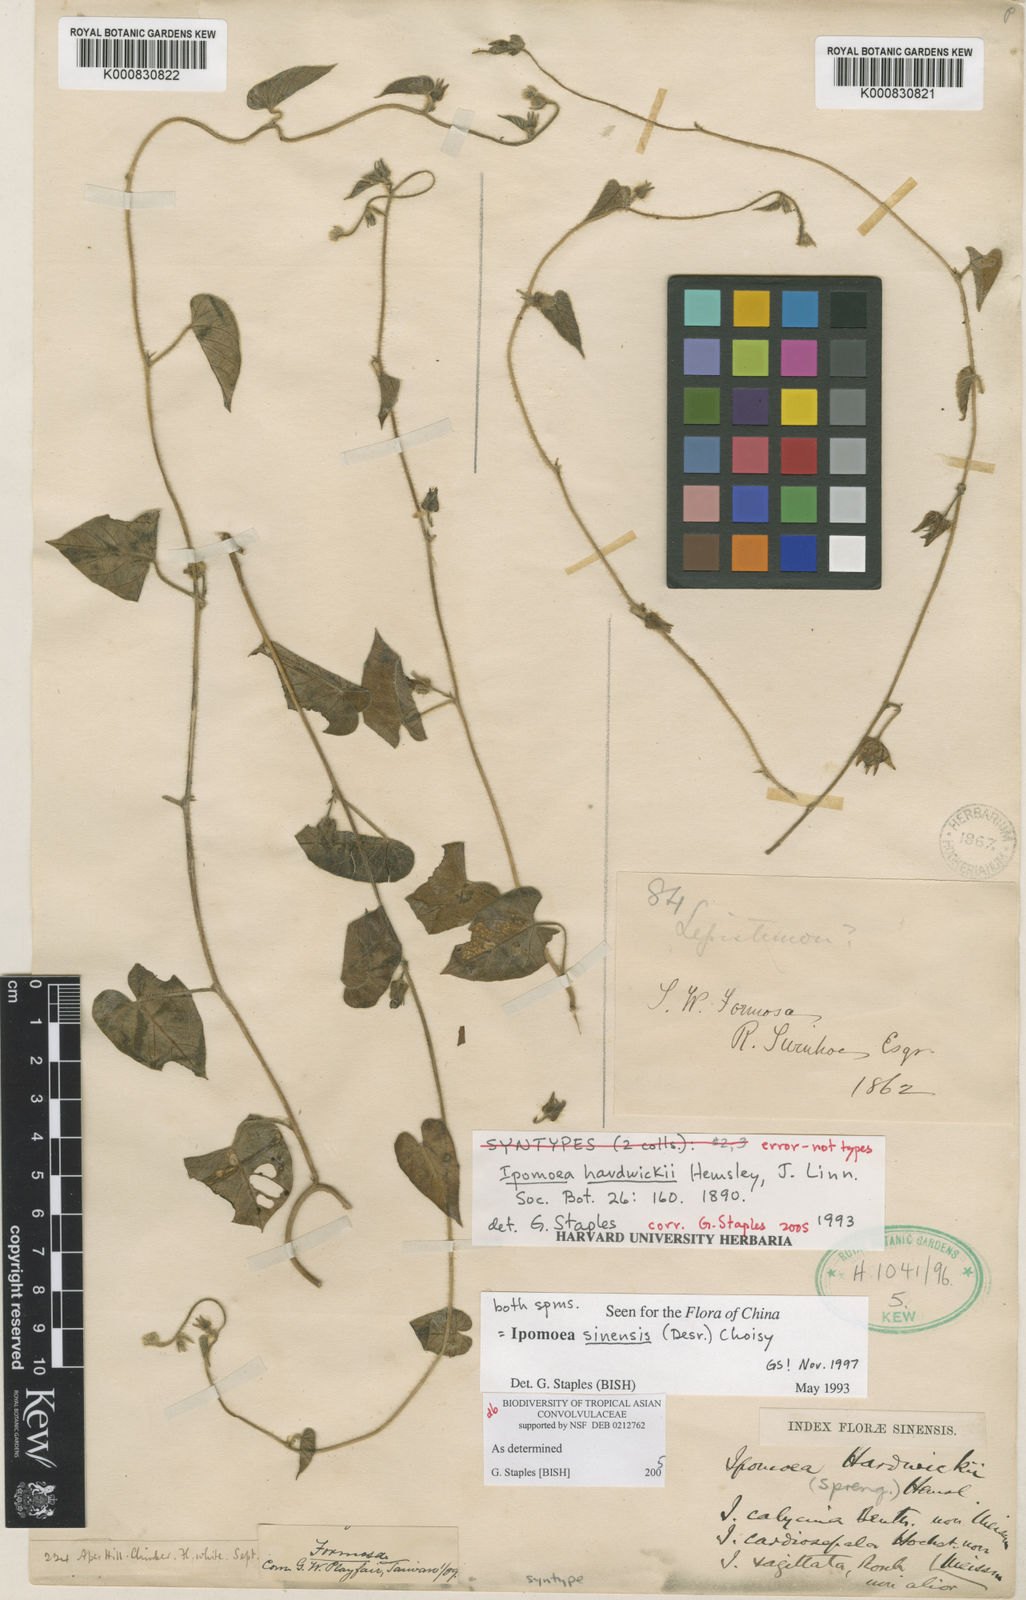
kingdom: Plantae
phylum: Tracheophyta
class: Magnoliopsida
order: Solanales
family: Convolvulaceae
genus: Ipomoea
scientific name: Ipomoea sinensis
